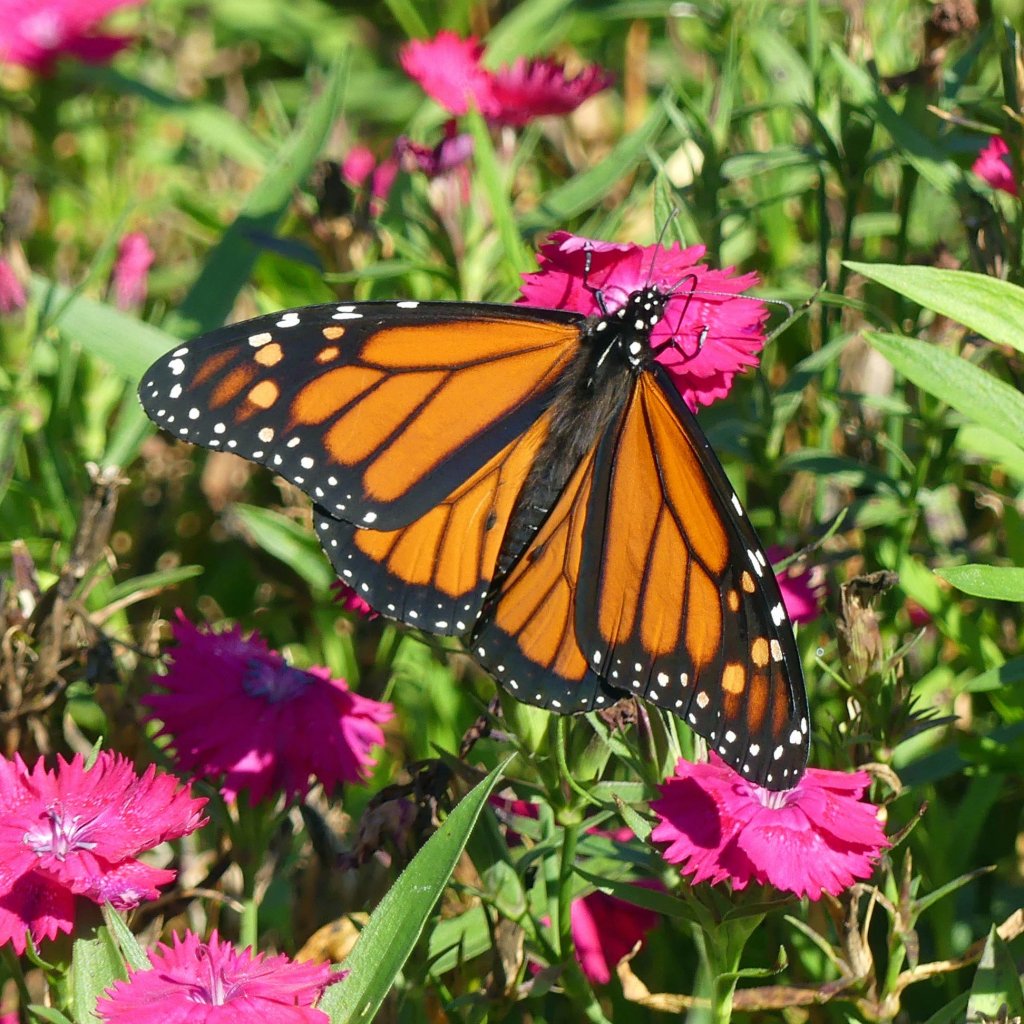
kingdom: Animalia
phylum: Arthropoda
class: Insecta
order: Lepidoptera
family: Nymphalidae
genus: Danaus
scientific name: Danaus plexippus
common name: Monarch
